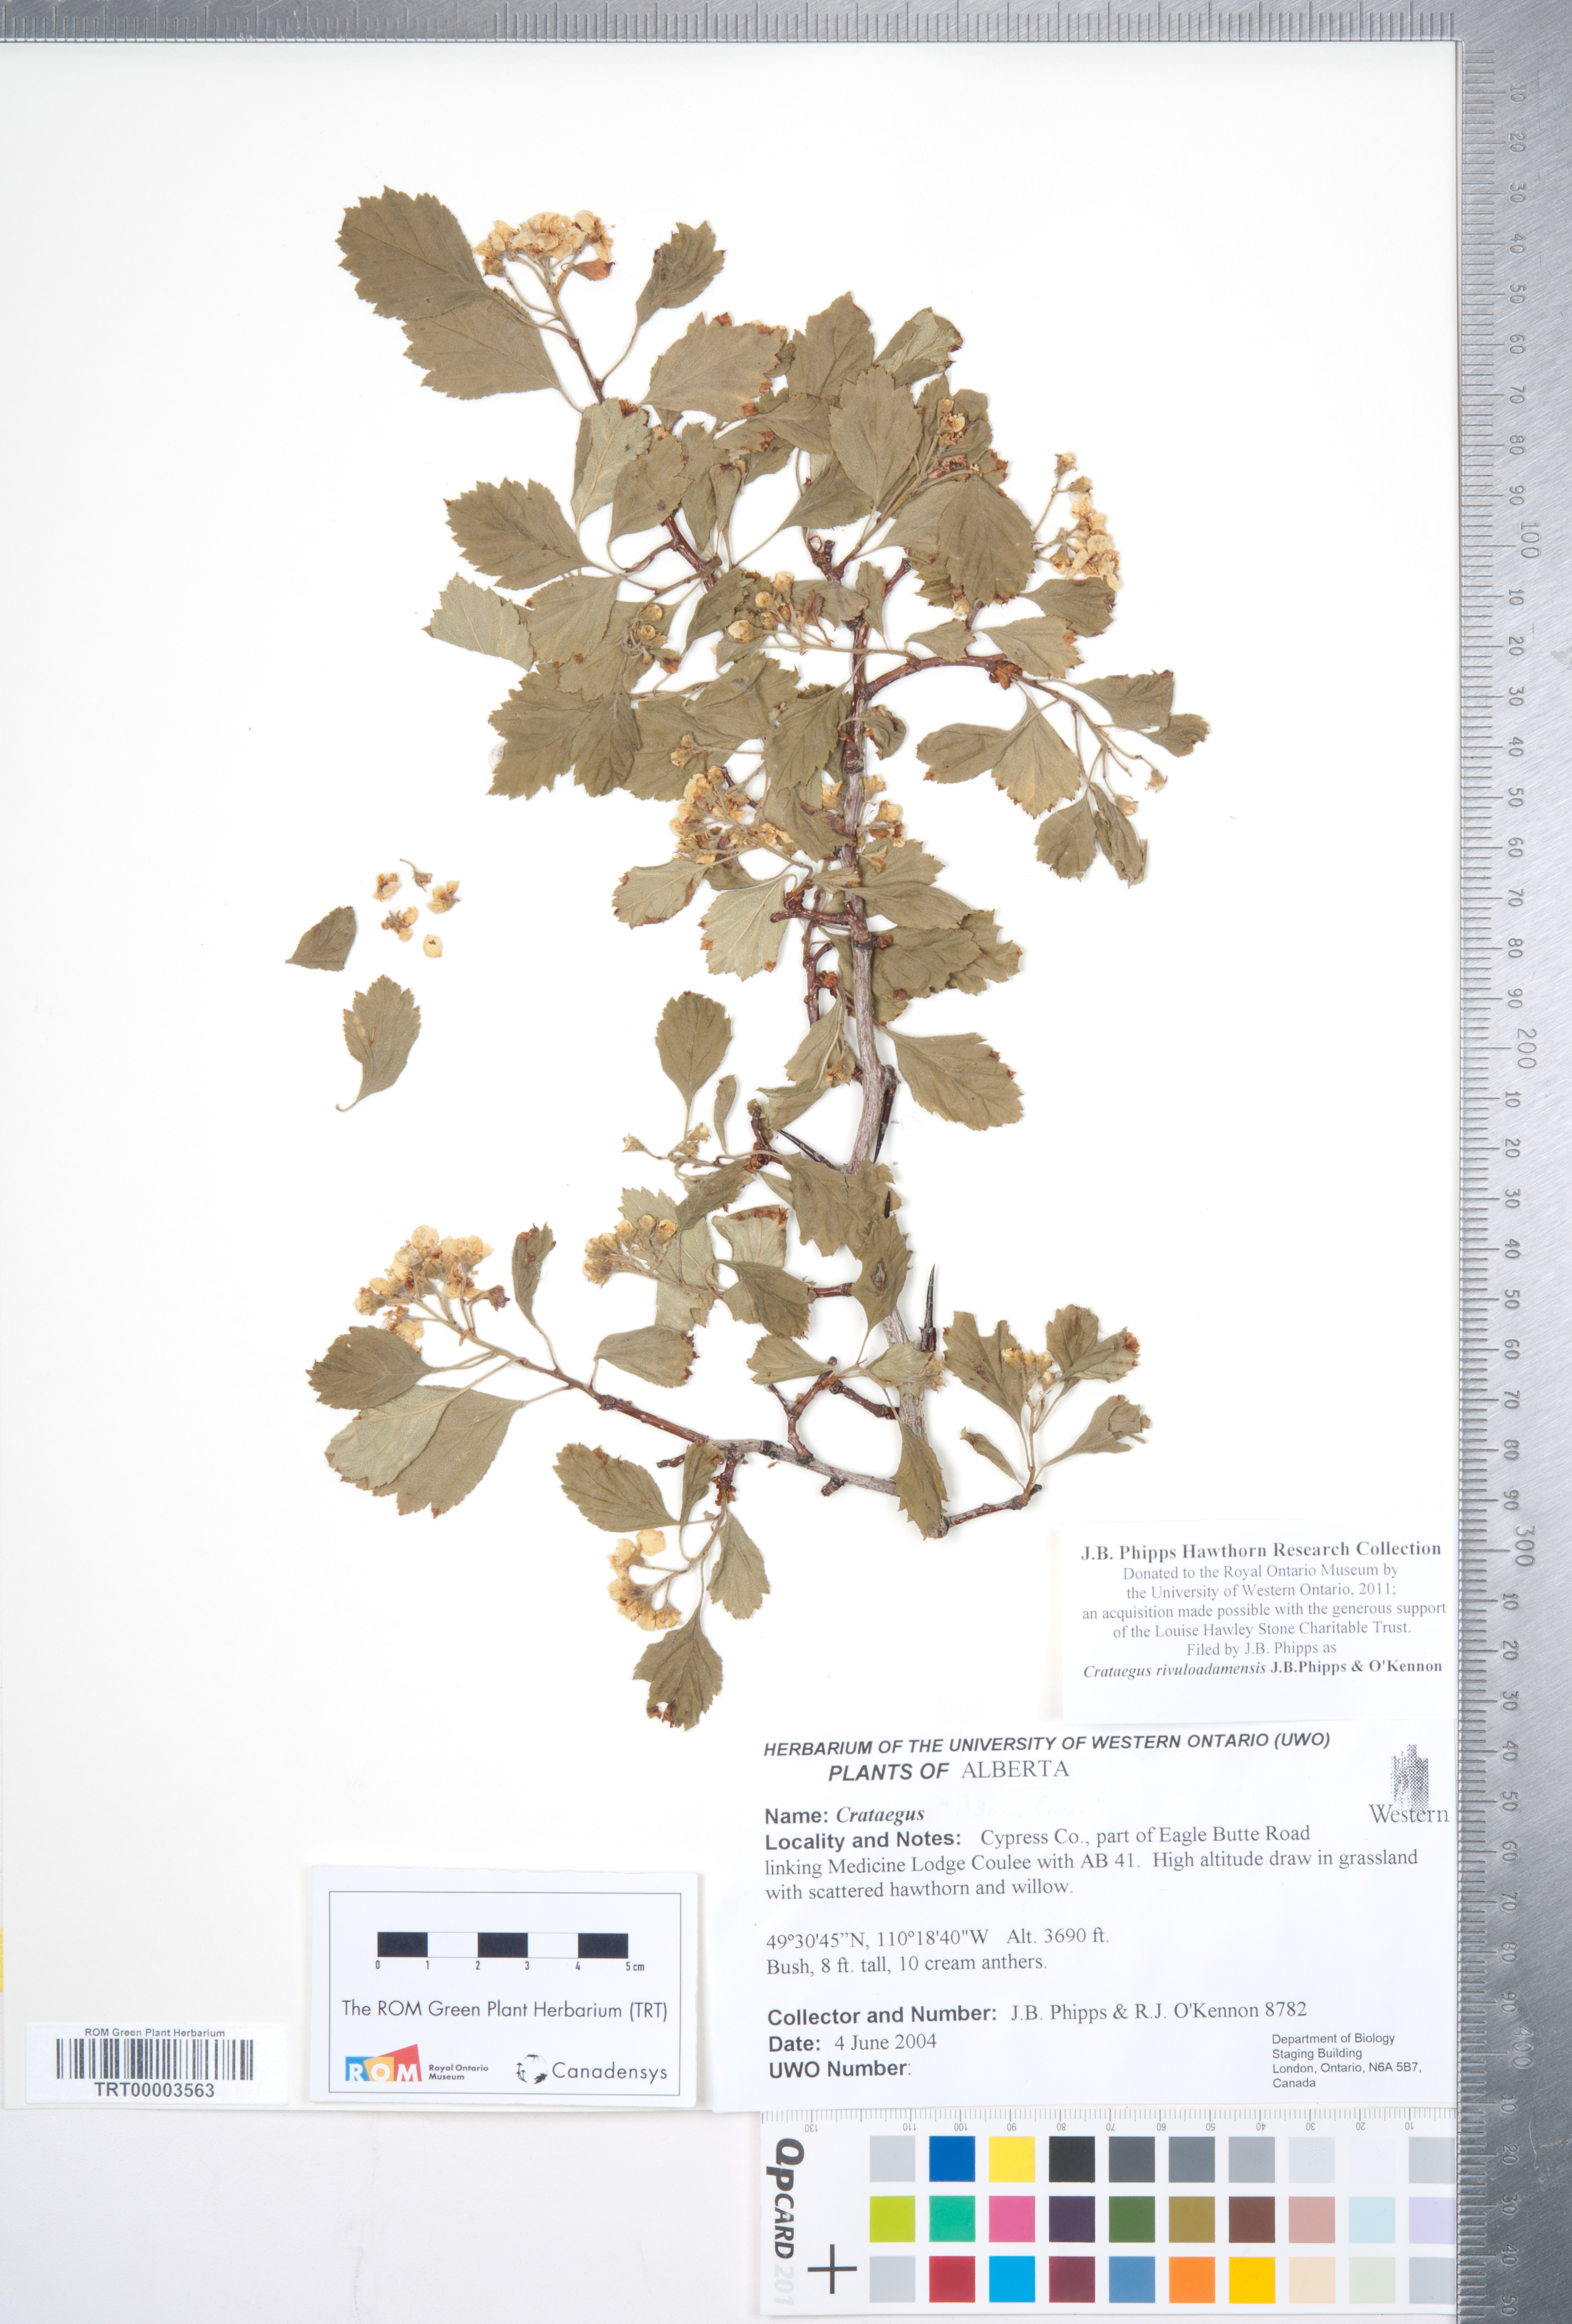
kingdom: Plantae
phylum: Tracheophyta
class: Magnoliopsida
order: Rosales
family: Rosaceae
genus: Crataegus
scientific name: Crataegus rivuloadamensis
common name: Adams creek hawthorn
